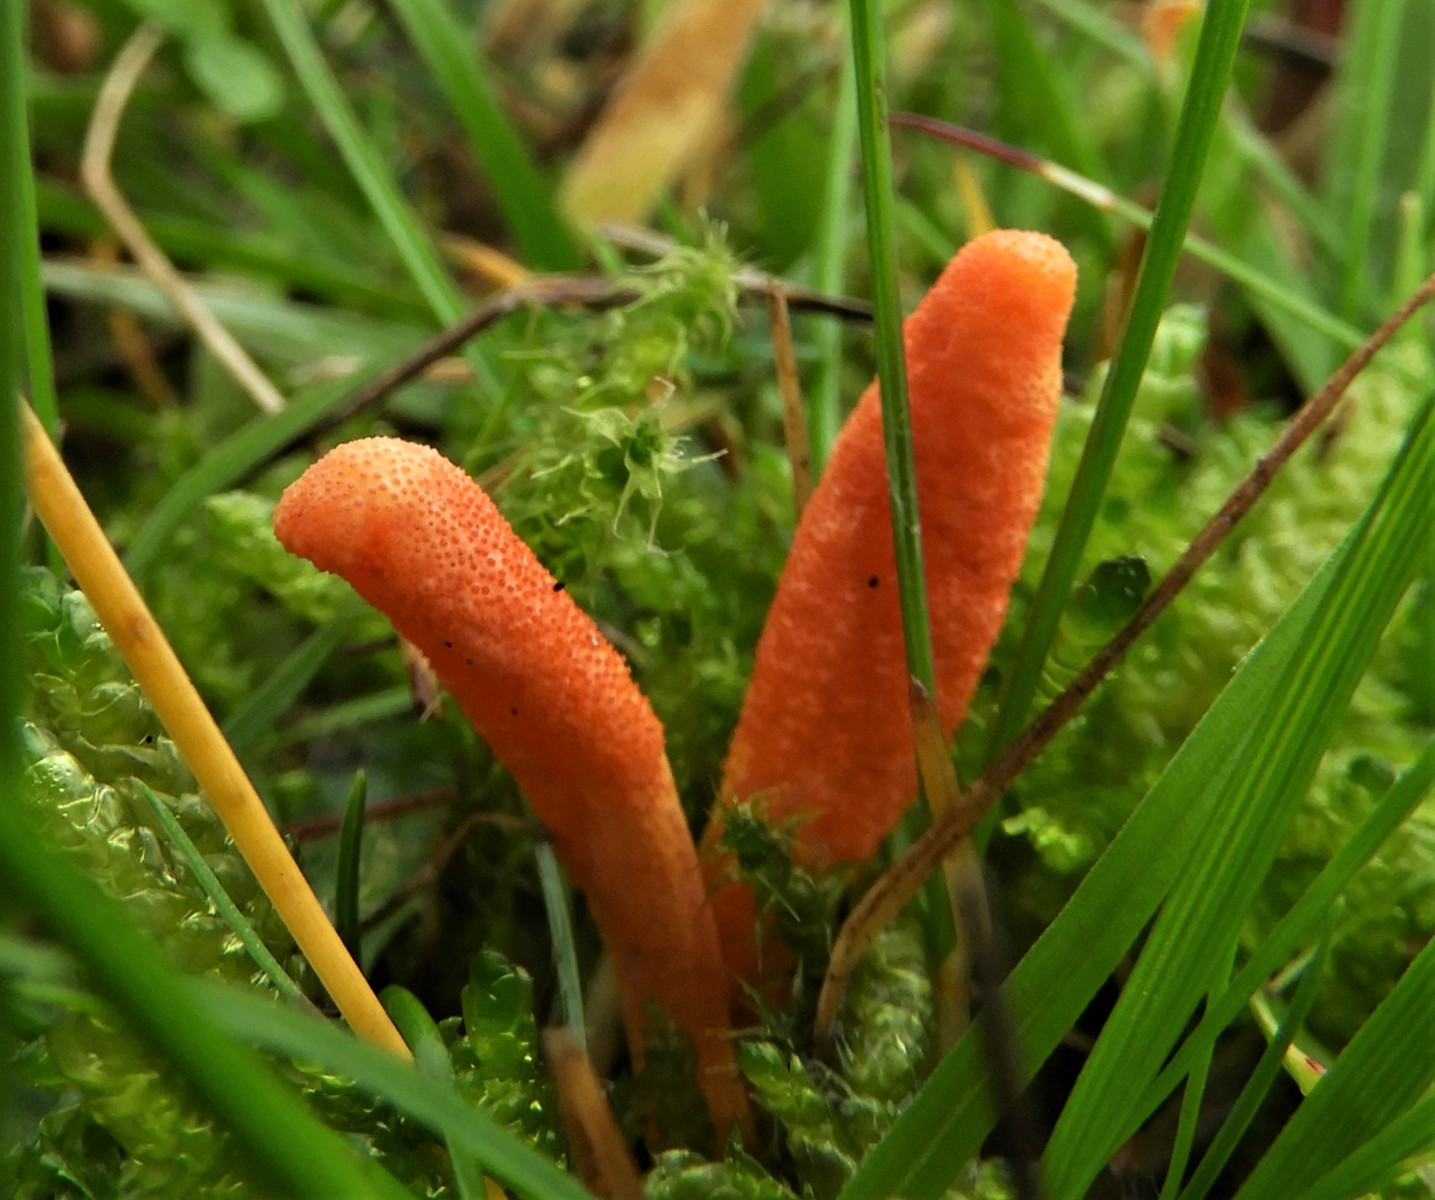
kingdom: Fungi
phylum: Ascomycota
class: Sordariomycetes
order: Hypocreales
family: Cordycipitaceae
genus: Cordyceps
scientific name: Cordyceps militaris
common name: puppe-snyltekølle
